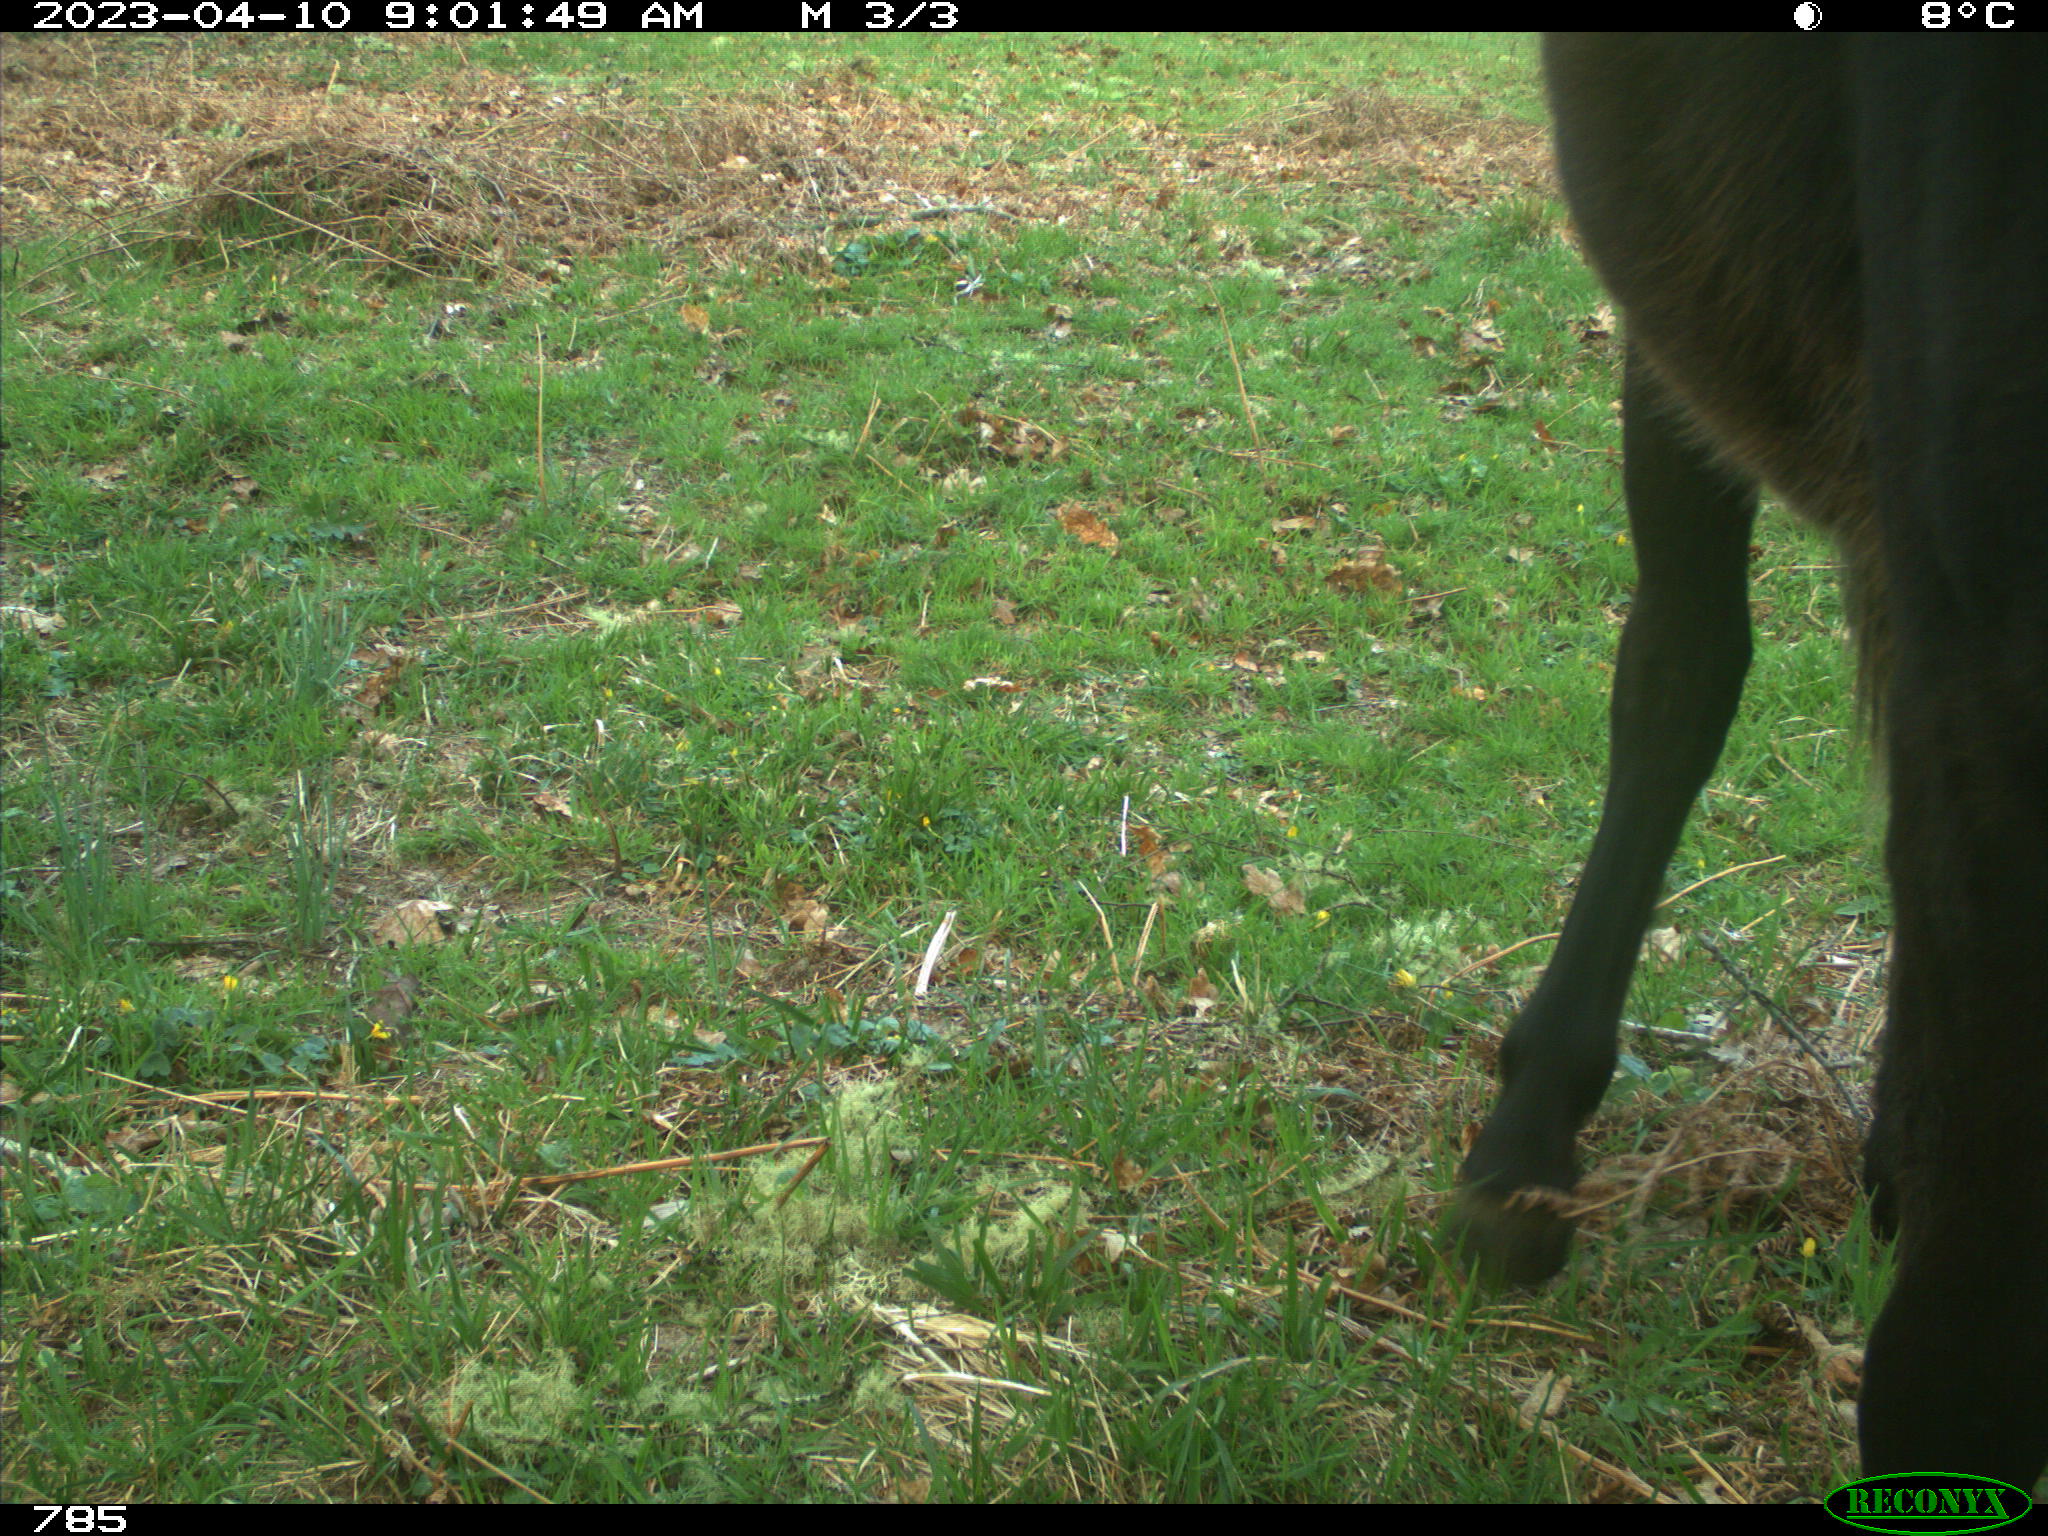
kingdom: Animalia
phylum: Chordata
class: Mammalia
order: Perissodactyla
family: Equidae
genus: Equus
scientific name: Equus caballus
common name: Horse
